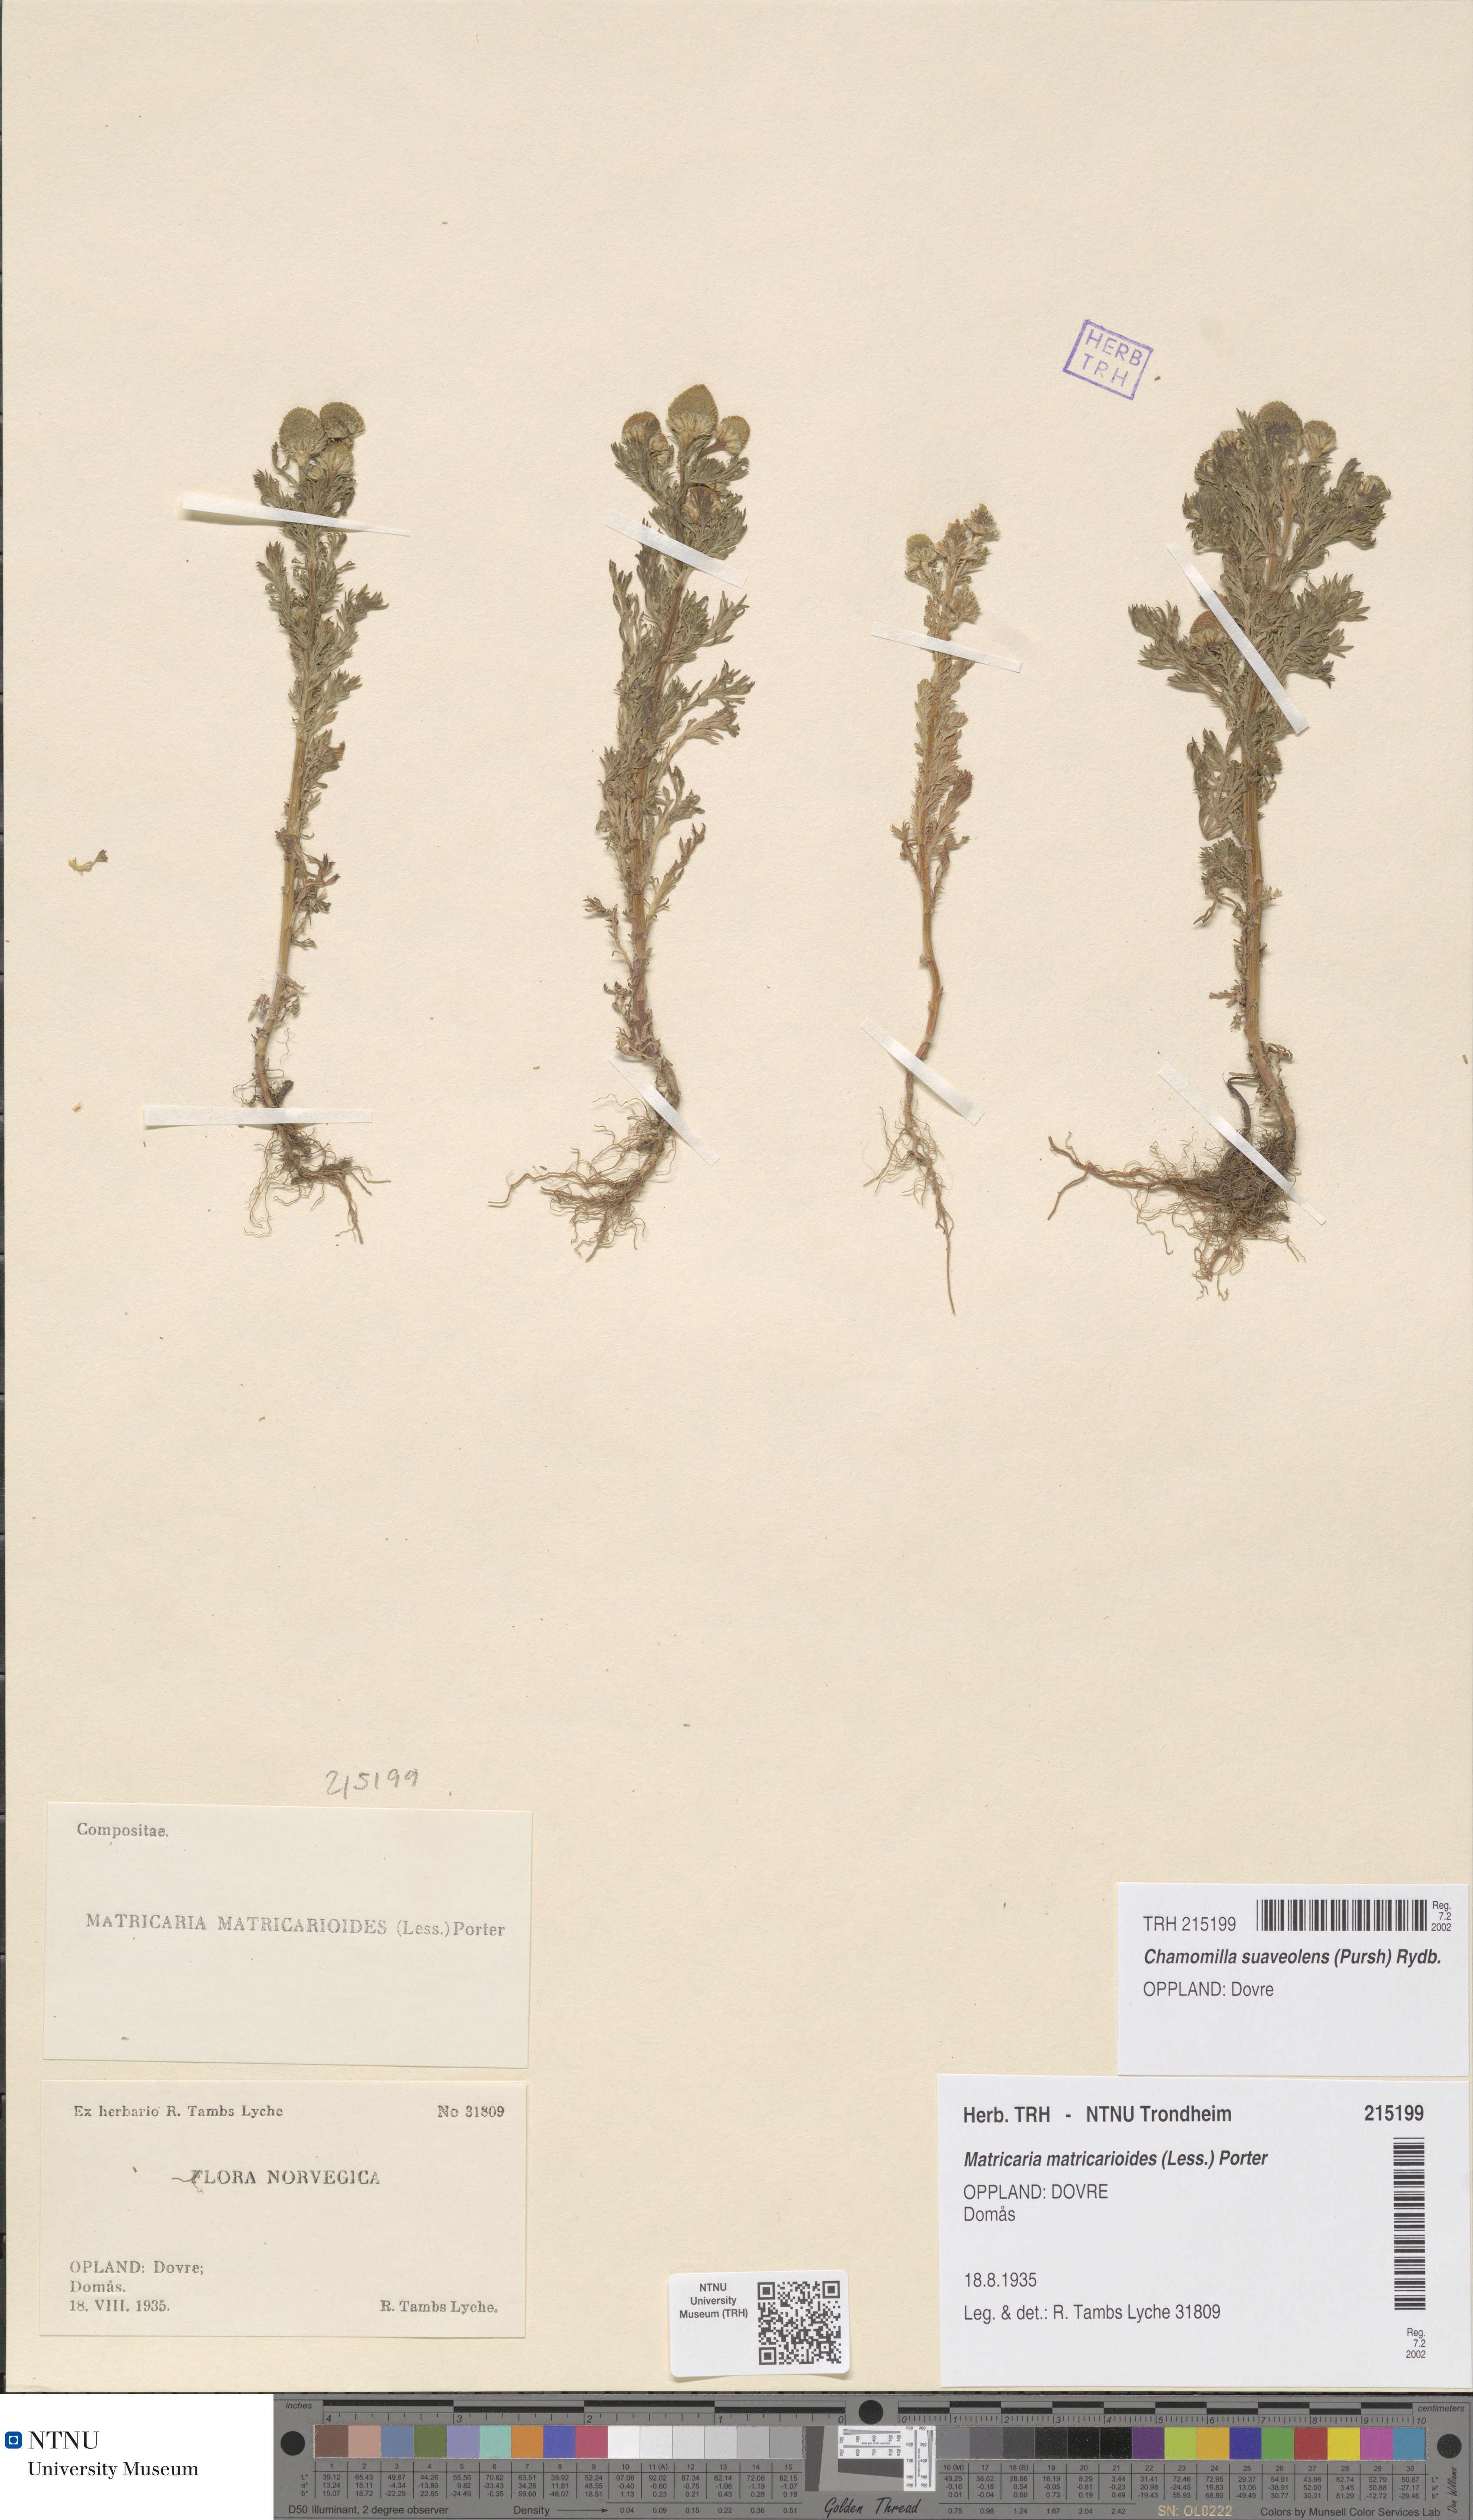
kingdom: Plantae
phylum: Tracheophyta
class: Magnoliopsida
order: Asterales
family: Asteraceae
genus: Matricaria
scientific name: Matricaria discoidea
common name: Disc mayweed
